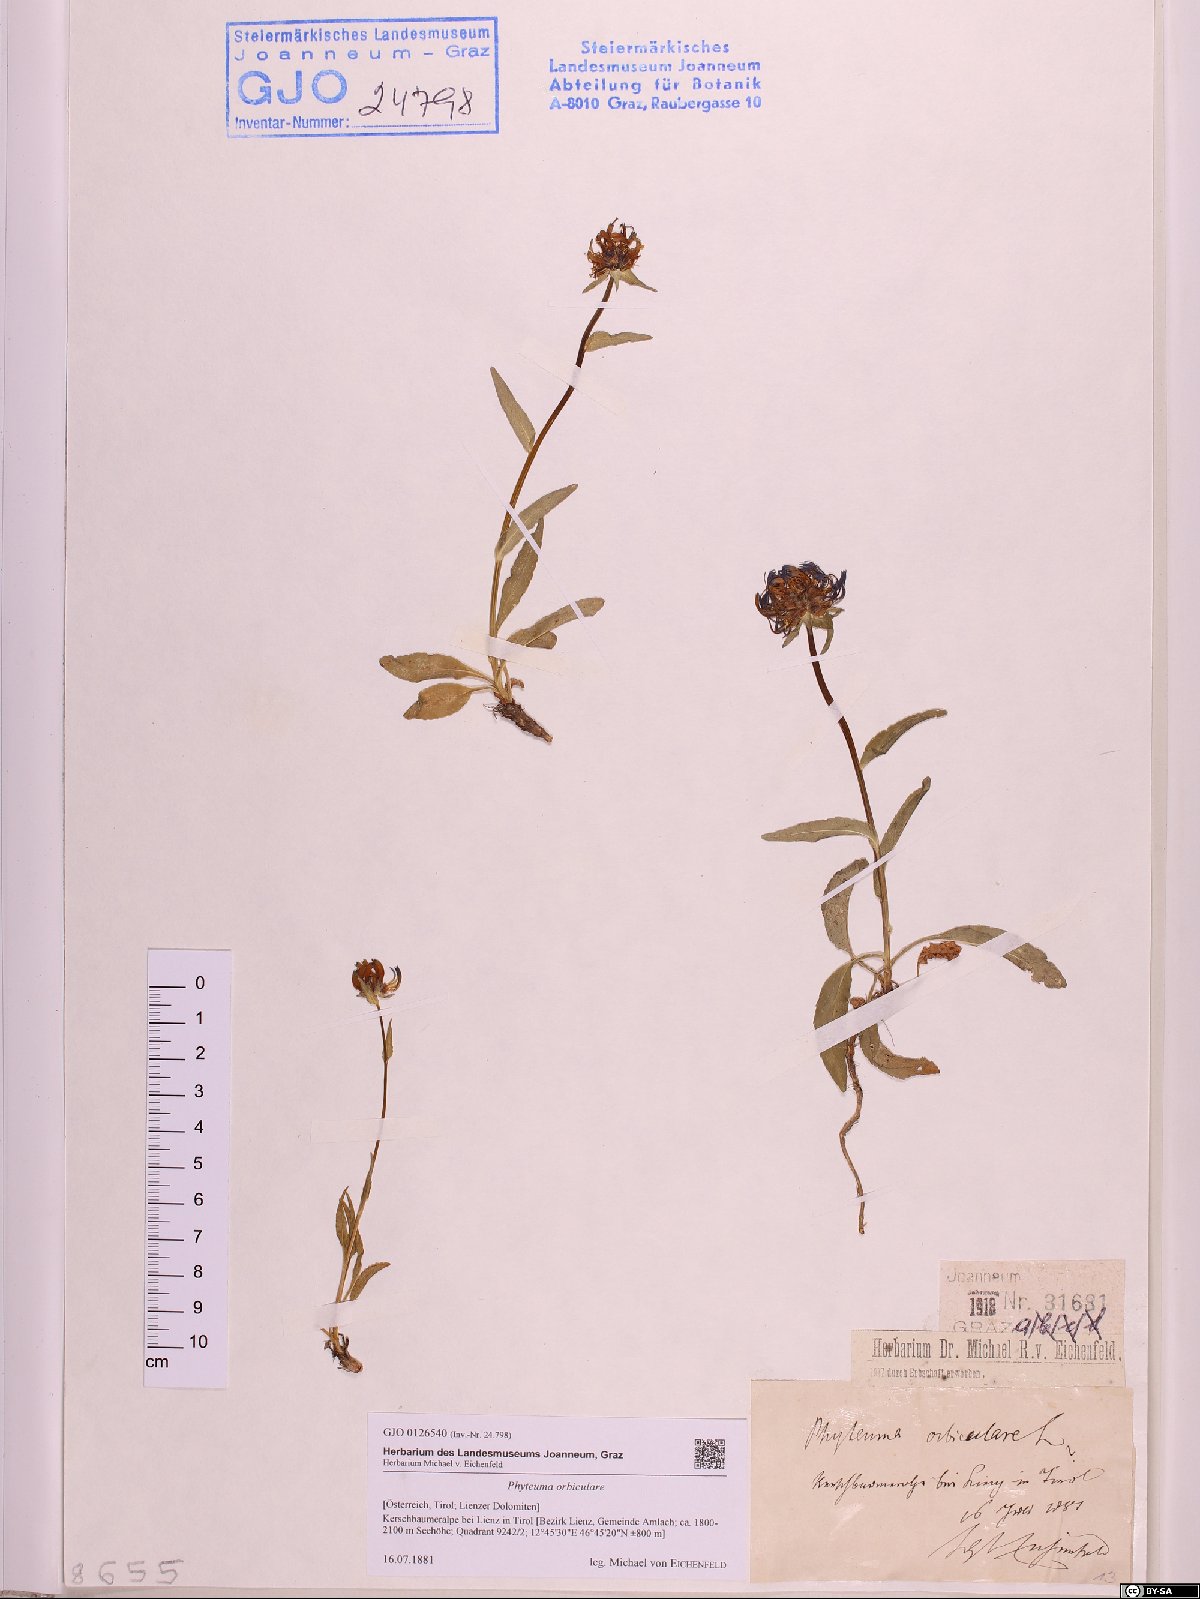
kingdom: Plantae
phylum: Tracheophyta
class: Magnoliopsida
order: Asterales
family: Campanulaceae
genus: Phyteuma
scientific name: Phyteuma orbiculare
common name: Round-headed rampion
